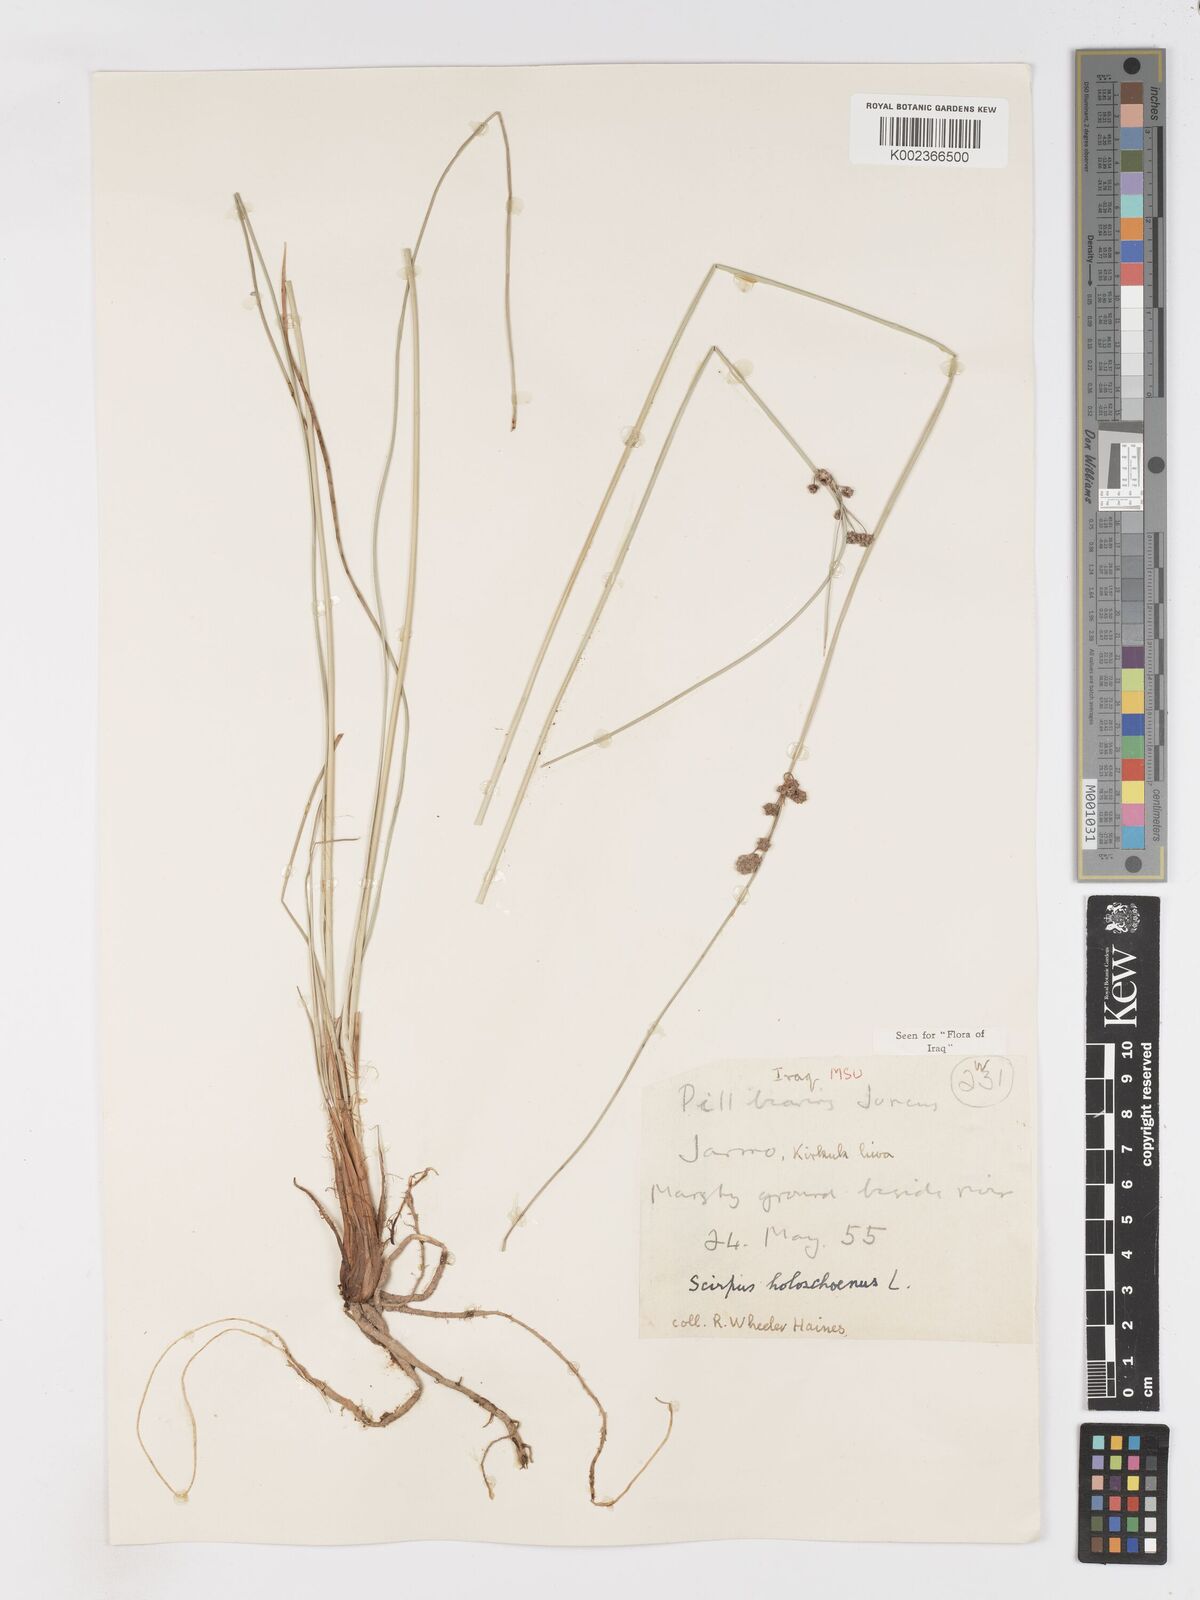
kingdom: Plantae
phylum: Tracheophyta
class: Liliopsida
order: Poales
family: Cyperaceae
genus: Scirpoides
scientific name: Scirpoides holoschoenus
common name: Round-headed club-rush
